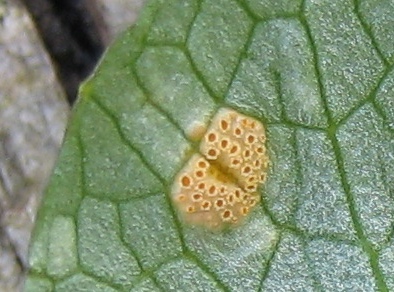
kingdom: Fungi
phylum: Basidiomycota
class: Pucciniomycetes
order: Pucciniales
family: Pucciniaceae
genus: Uromyces
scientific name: Uromyces dactylidis
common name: ranunkel-encellerust
